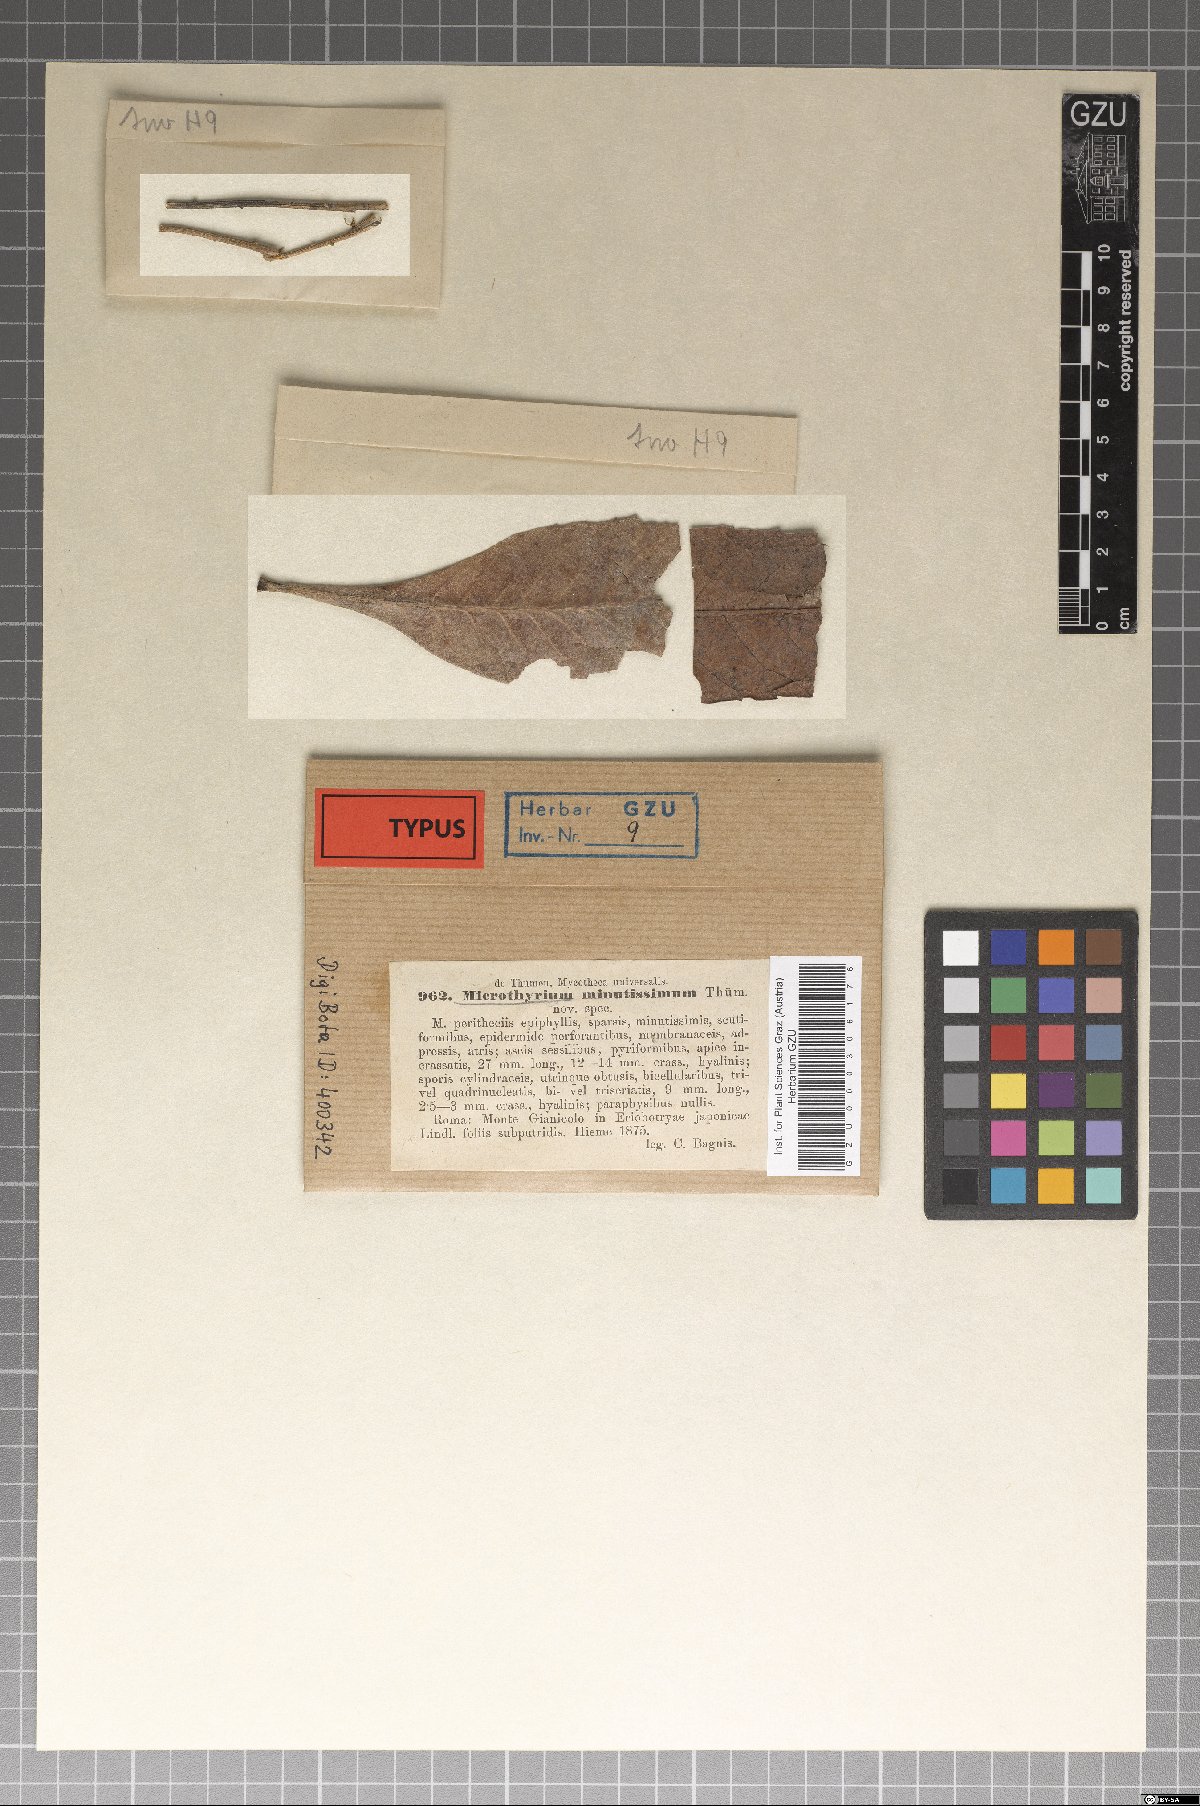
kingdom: Fungi
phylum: Ascomycota
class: Dothideomycetes
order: Microthyriales
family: Microthyriaceae
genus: Microthyrium
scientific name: Microthyrium
